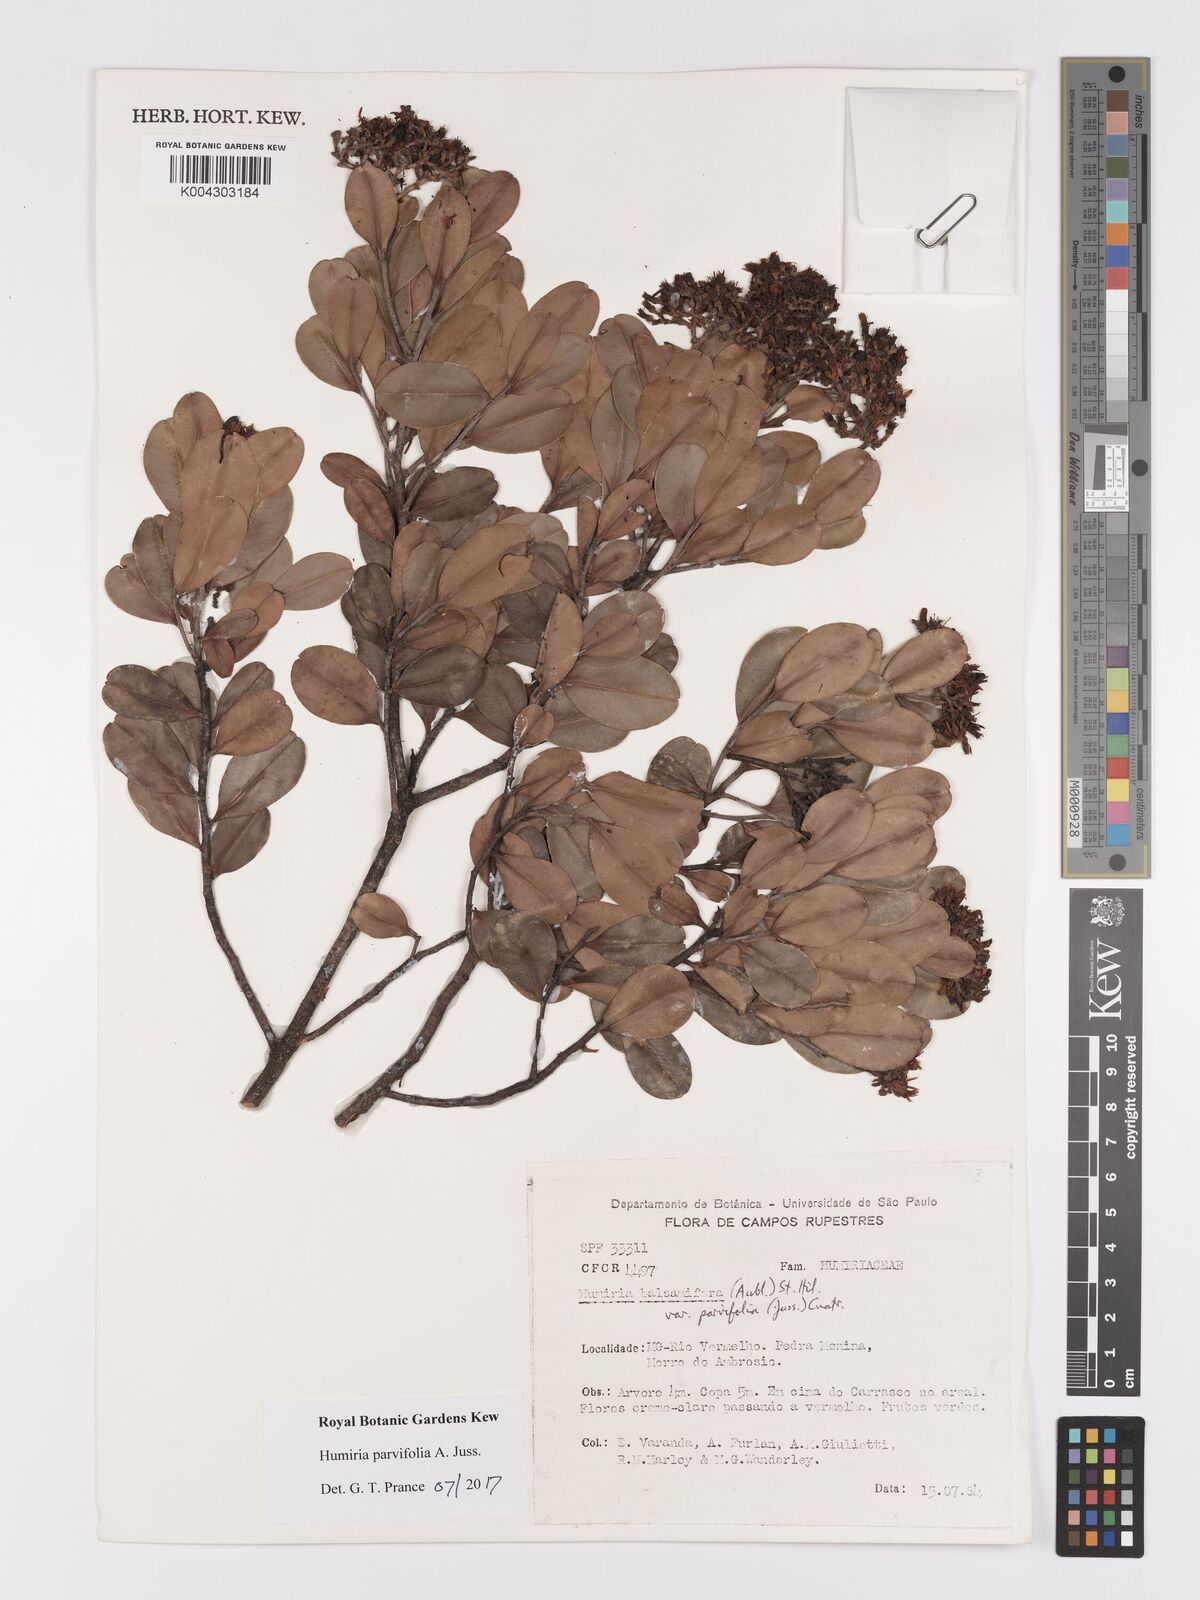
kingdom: Plantae
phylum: Tracheophyta
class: Magnoliopsida
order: Malpighiales
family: Humiriaceae
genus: Humiria
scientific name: Humiria parvifolia
